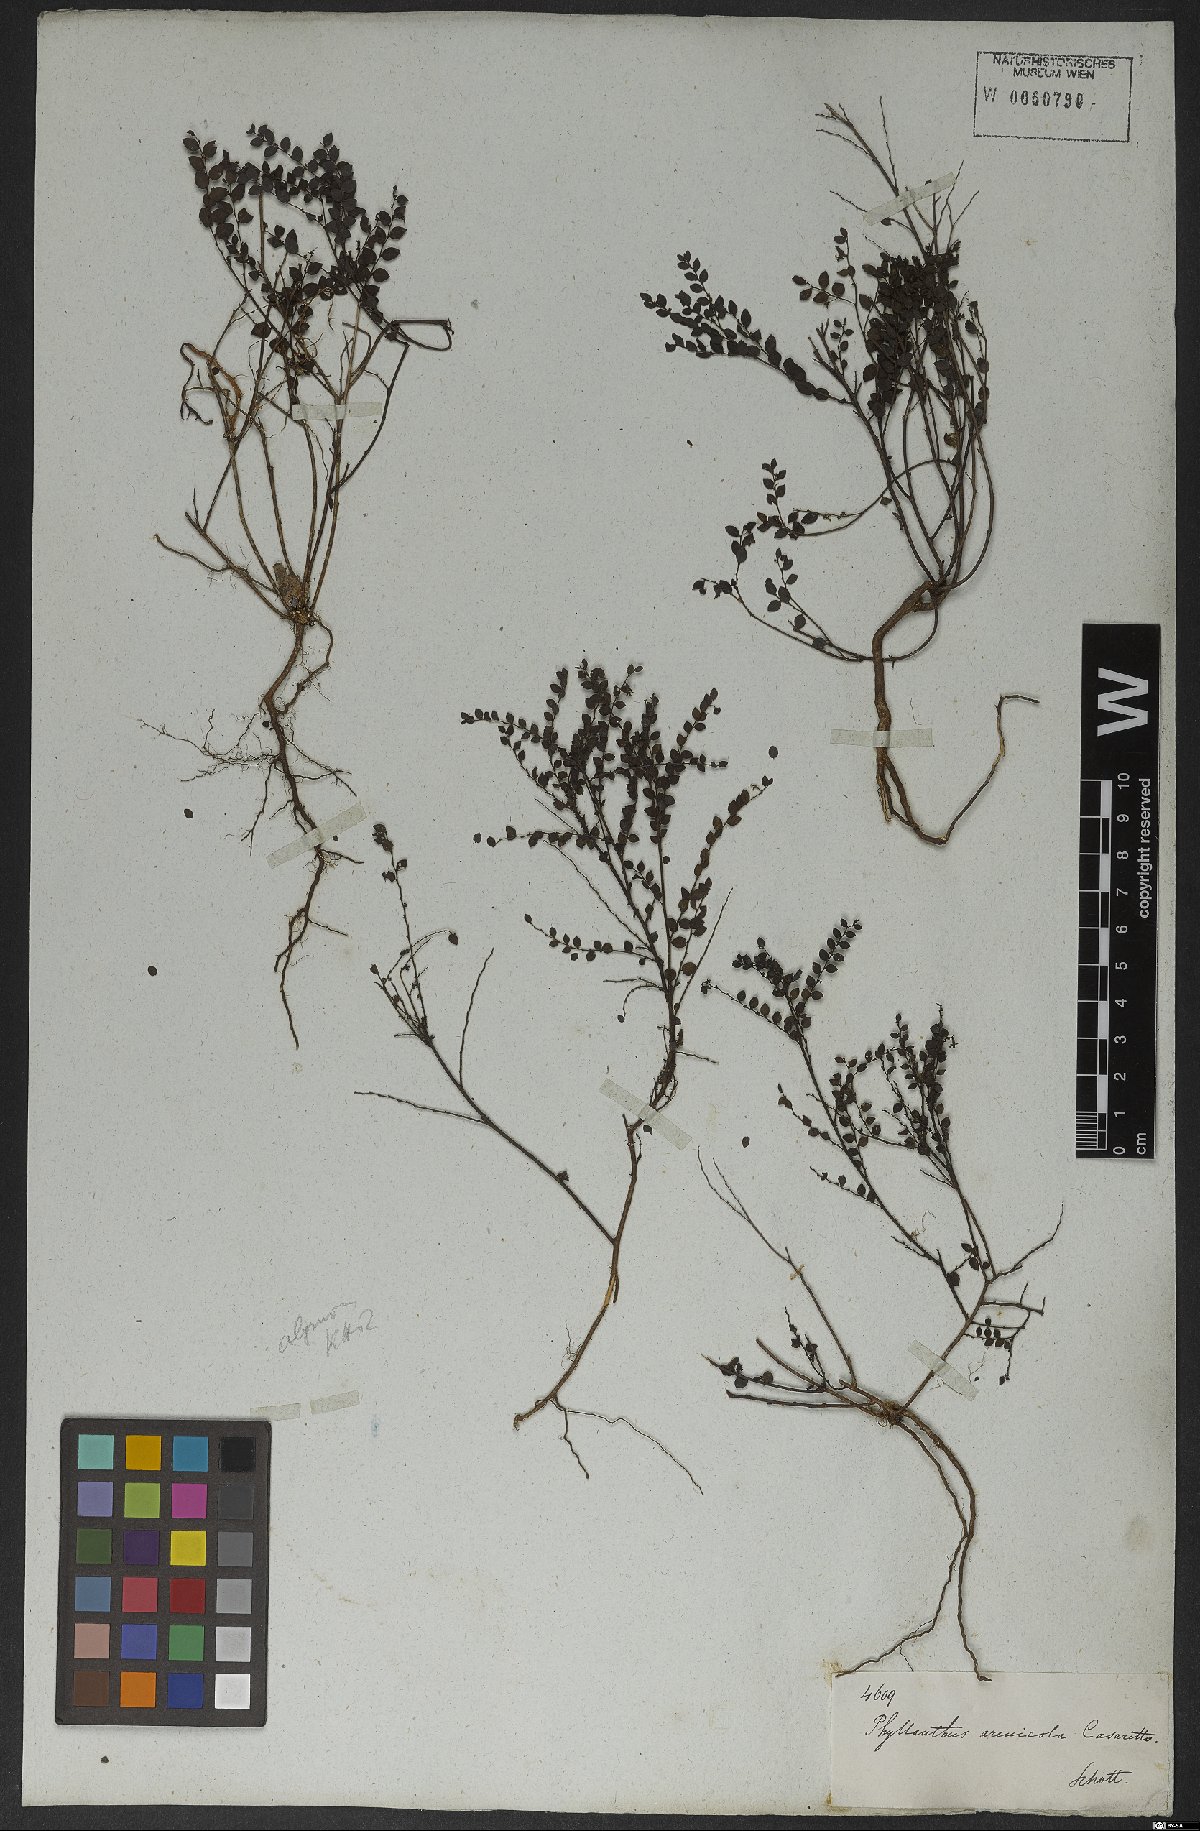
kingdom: Plantae
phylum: Tracheophyta
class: Magnoliopsida
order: Malpighiales
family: Phyllanthaceae
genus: Phyllanthus
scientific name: Phyllanthus arenicola
